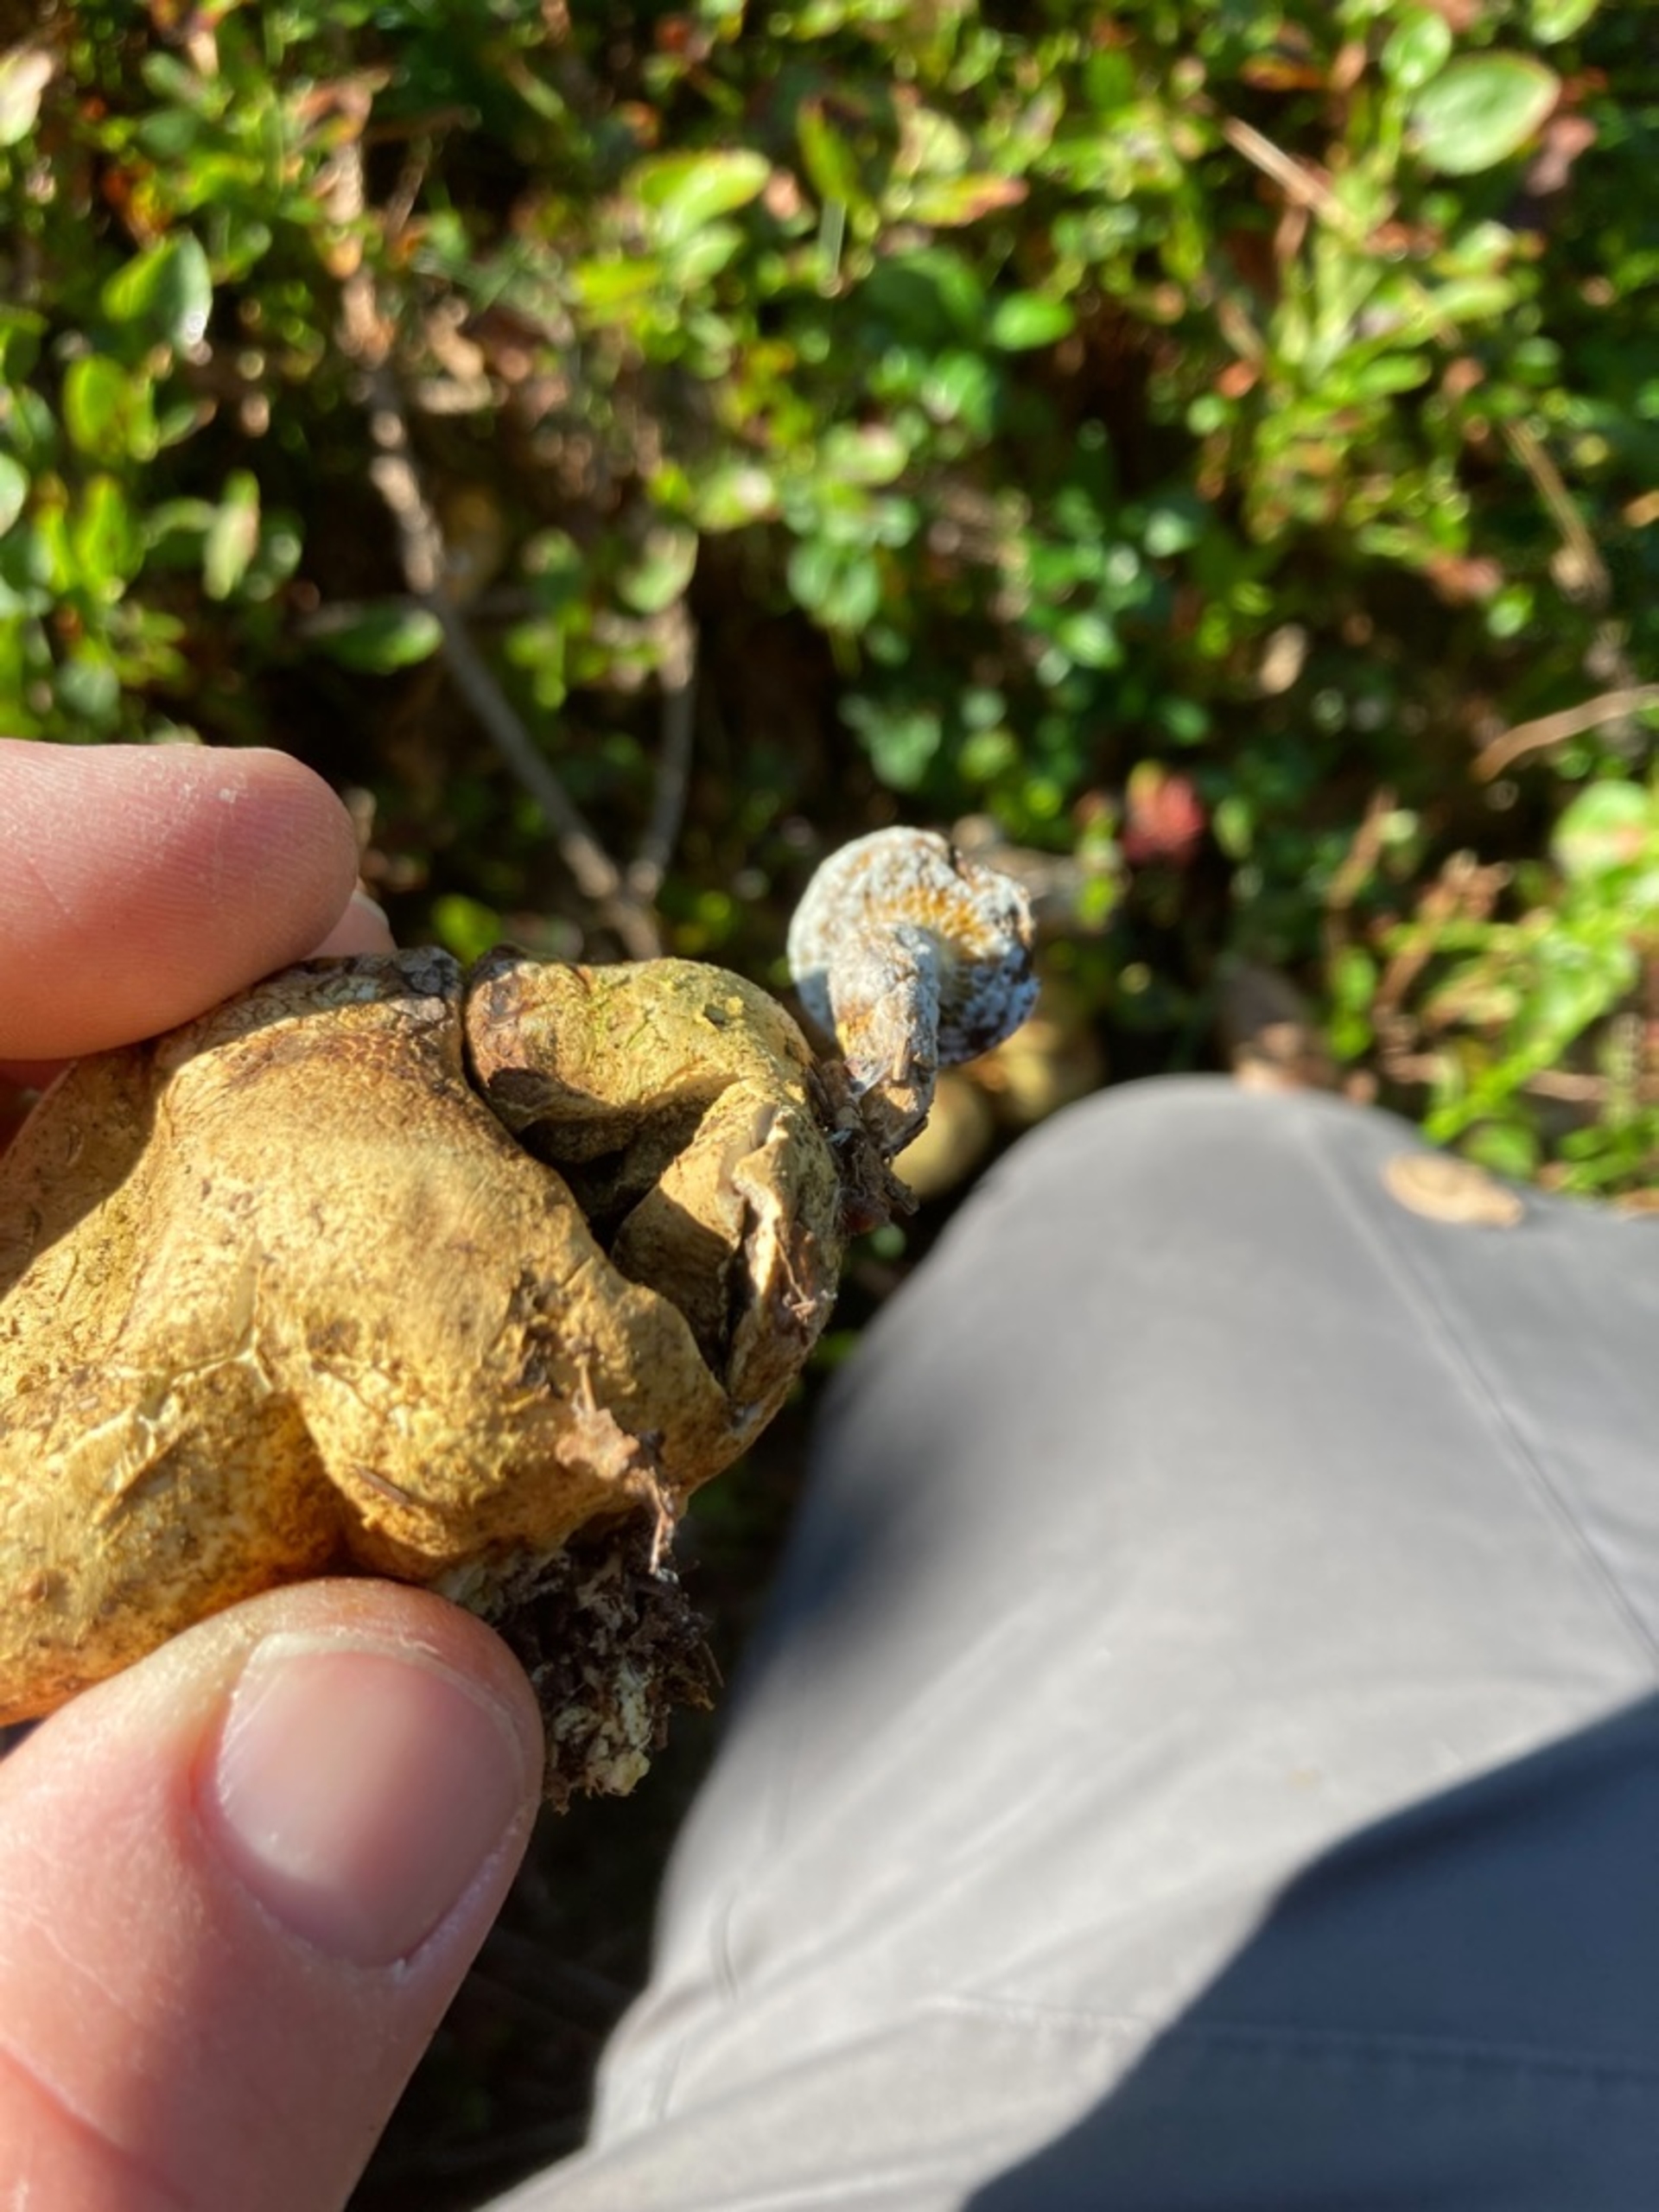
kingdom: Fungi
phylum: Basidiomycota
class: Agaricomycetes
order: Boletales
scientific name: Boletales
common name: Rørhatordenen
